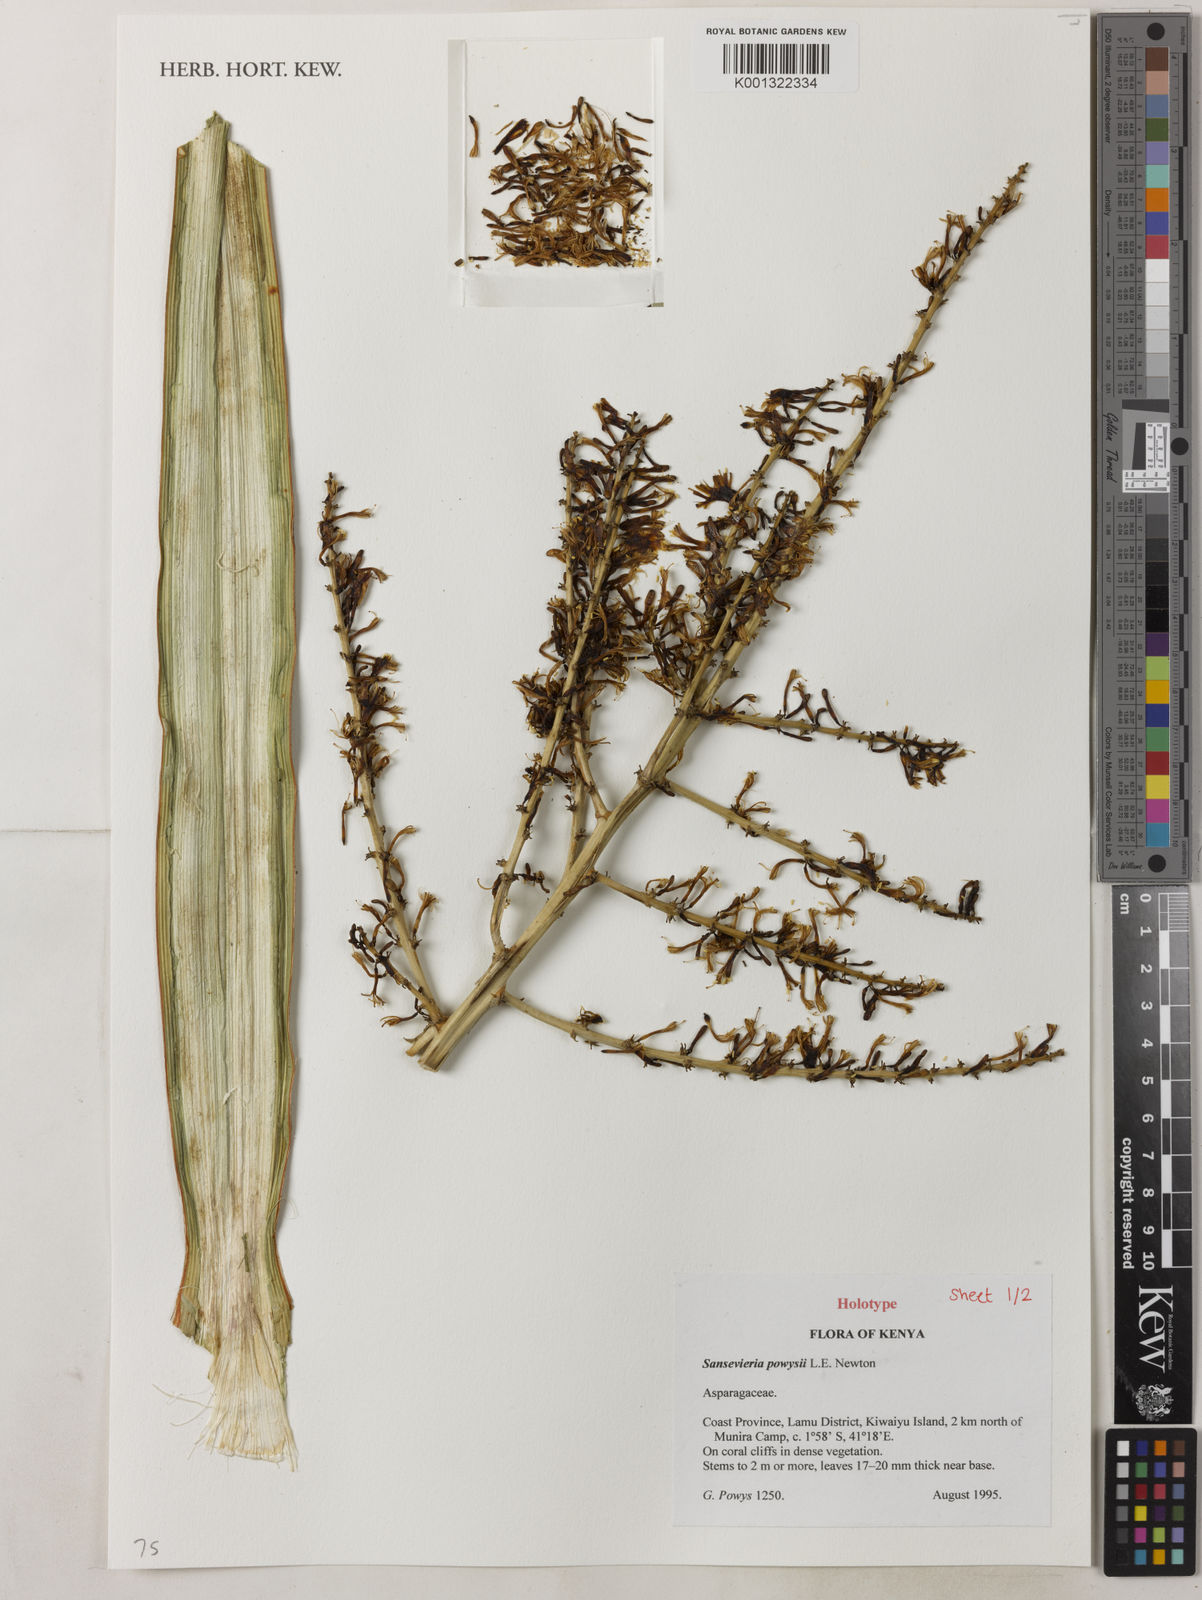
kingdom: Plantae
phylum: Tracheophyta
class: Liliopsida
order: Asparagales
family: Asparagaceae
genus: Dracaena
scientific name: Dracaena powysii
